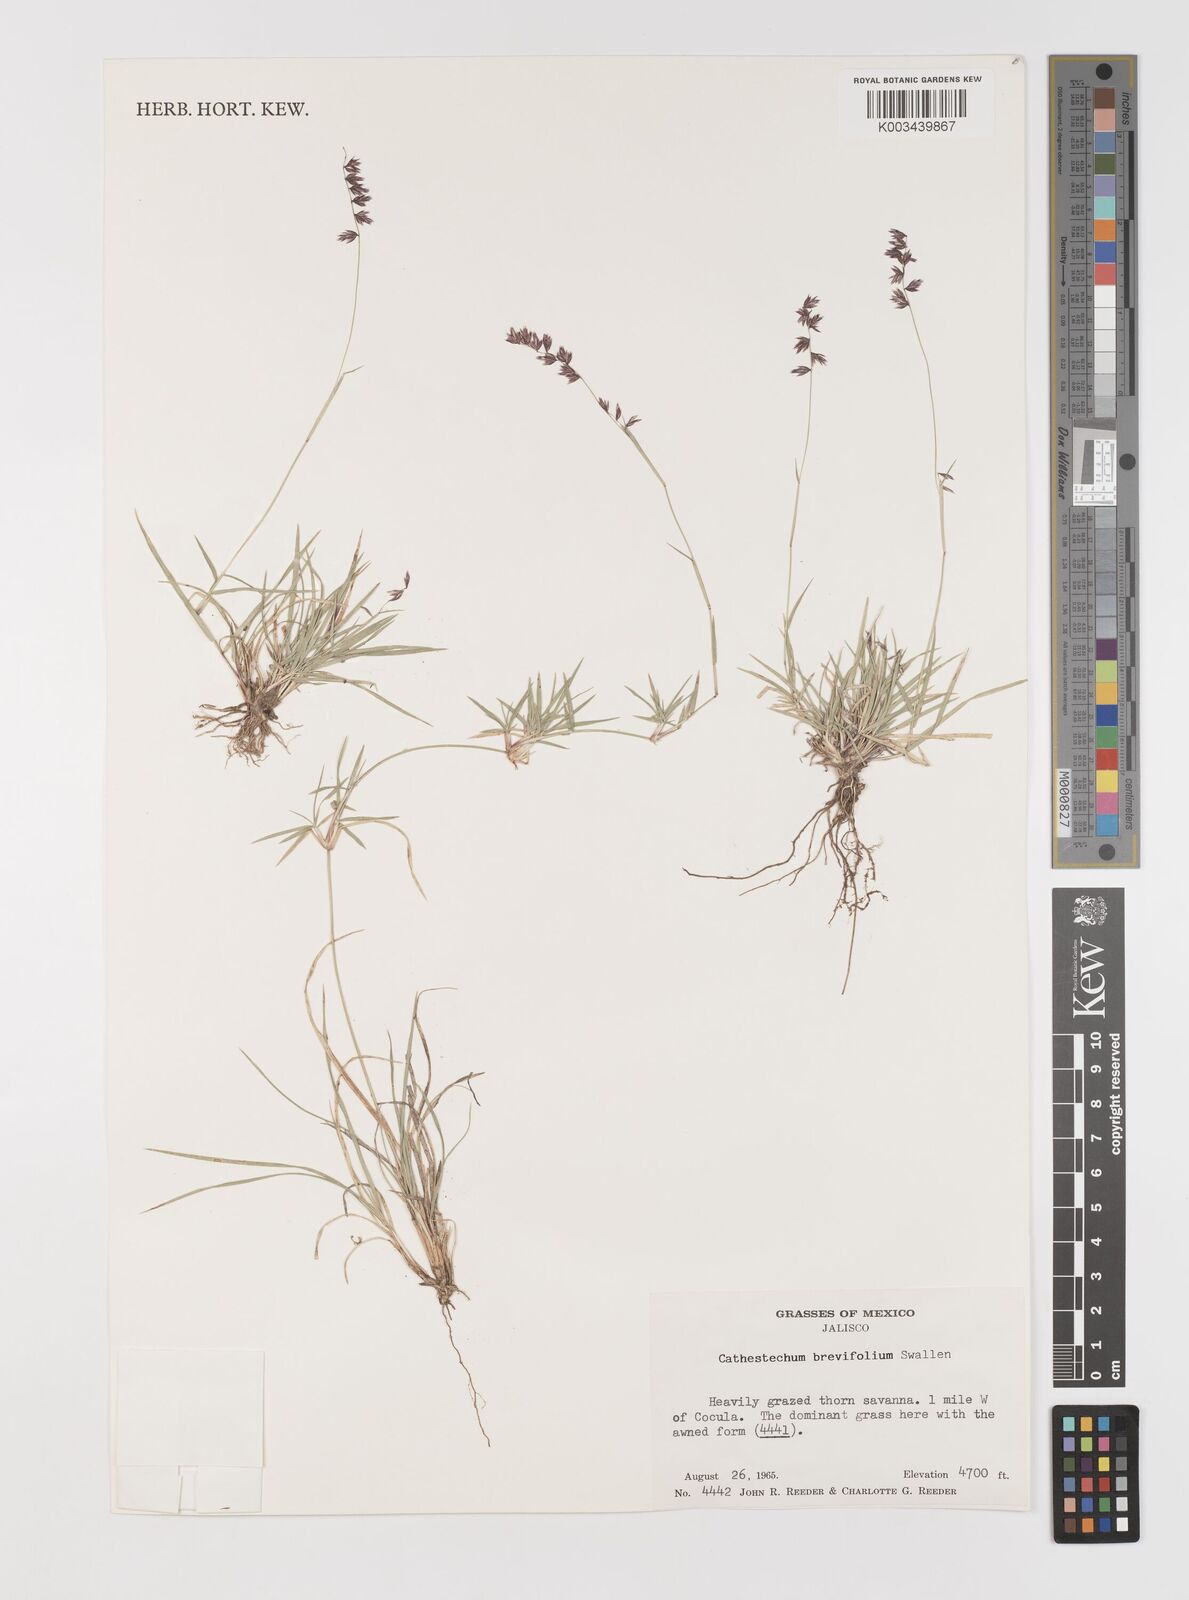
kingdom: Plantae
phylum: Tracheophyta
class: Liliopsida
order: Poales
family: Poaceae
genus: Bouteloua
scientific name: Bouteloua diversispicula
